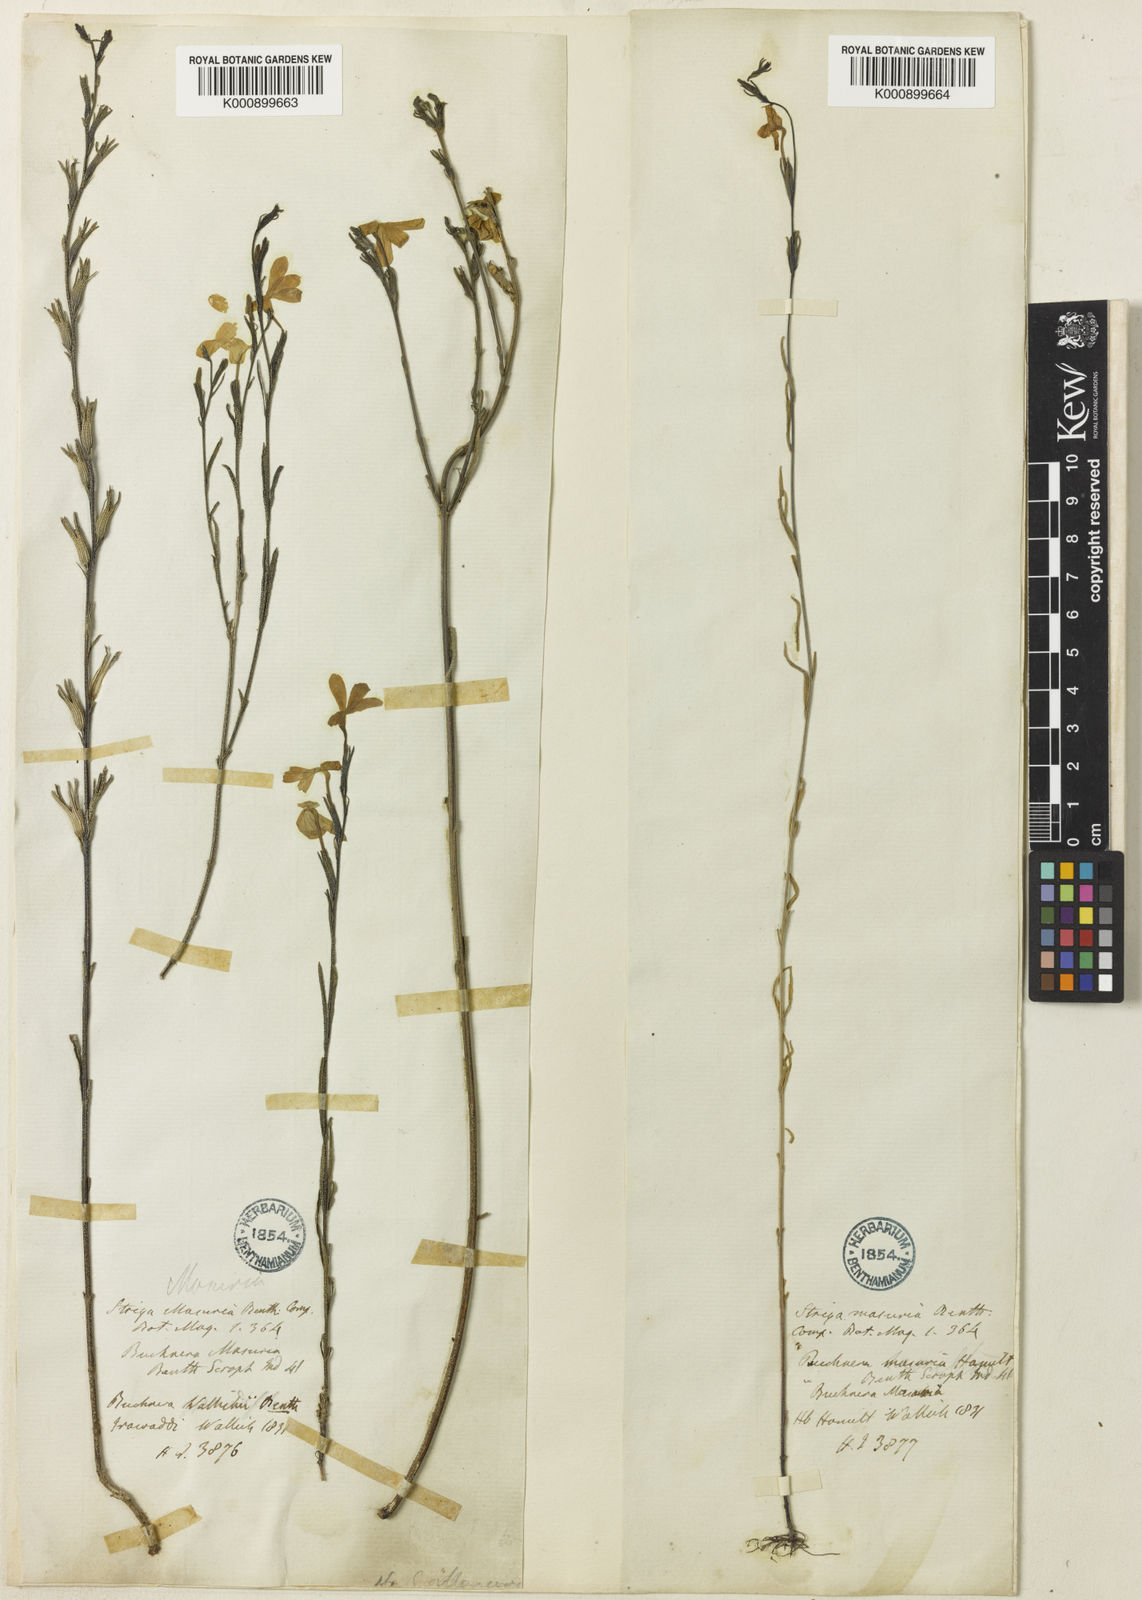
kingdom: Plantae
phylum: Tracheophyta
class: Magnoliopsida
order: Lamiales
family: Orobanchaceae
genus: Striga
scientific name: Striga masuria
